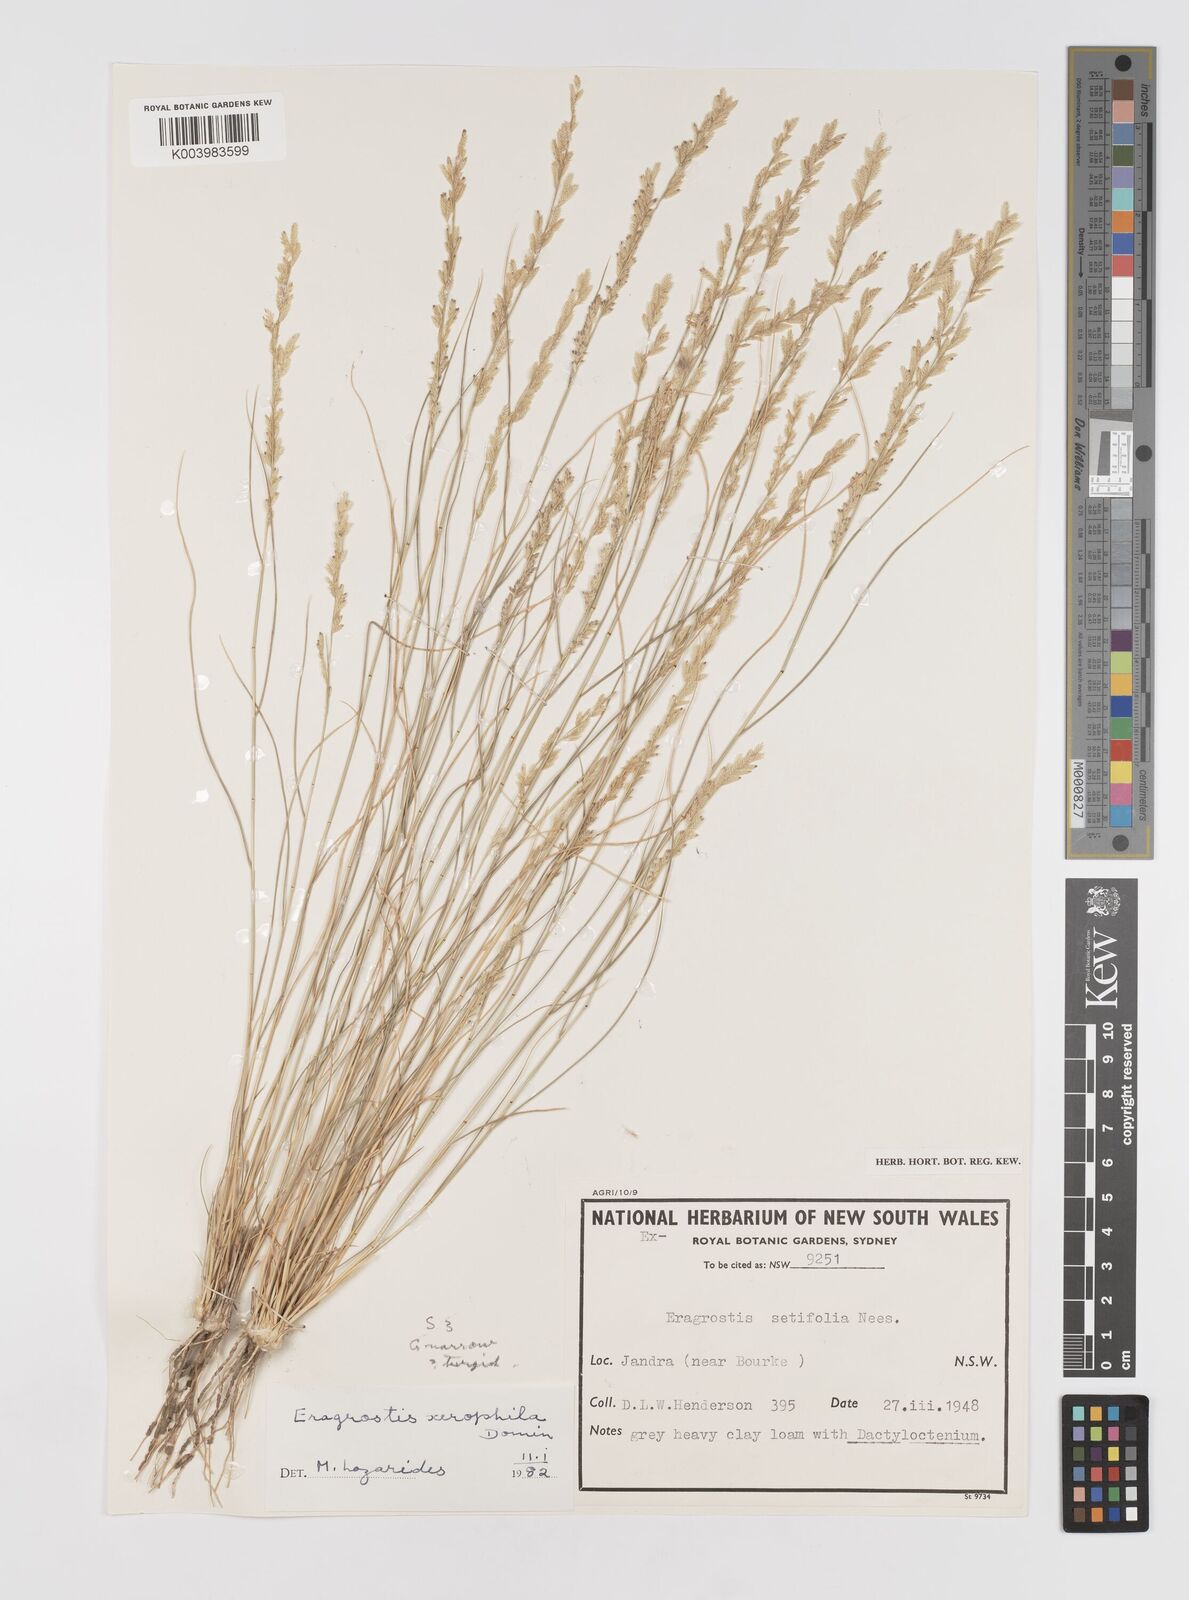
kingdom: Plantae
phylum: Tracheophyta
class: Liliopsida
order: Poales
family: Poaceae
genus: Eragrostis
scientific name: Eragrostis xerophila
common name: Wire wandarrie grass
